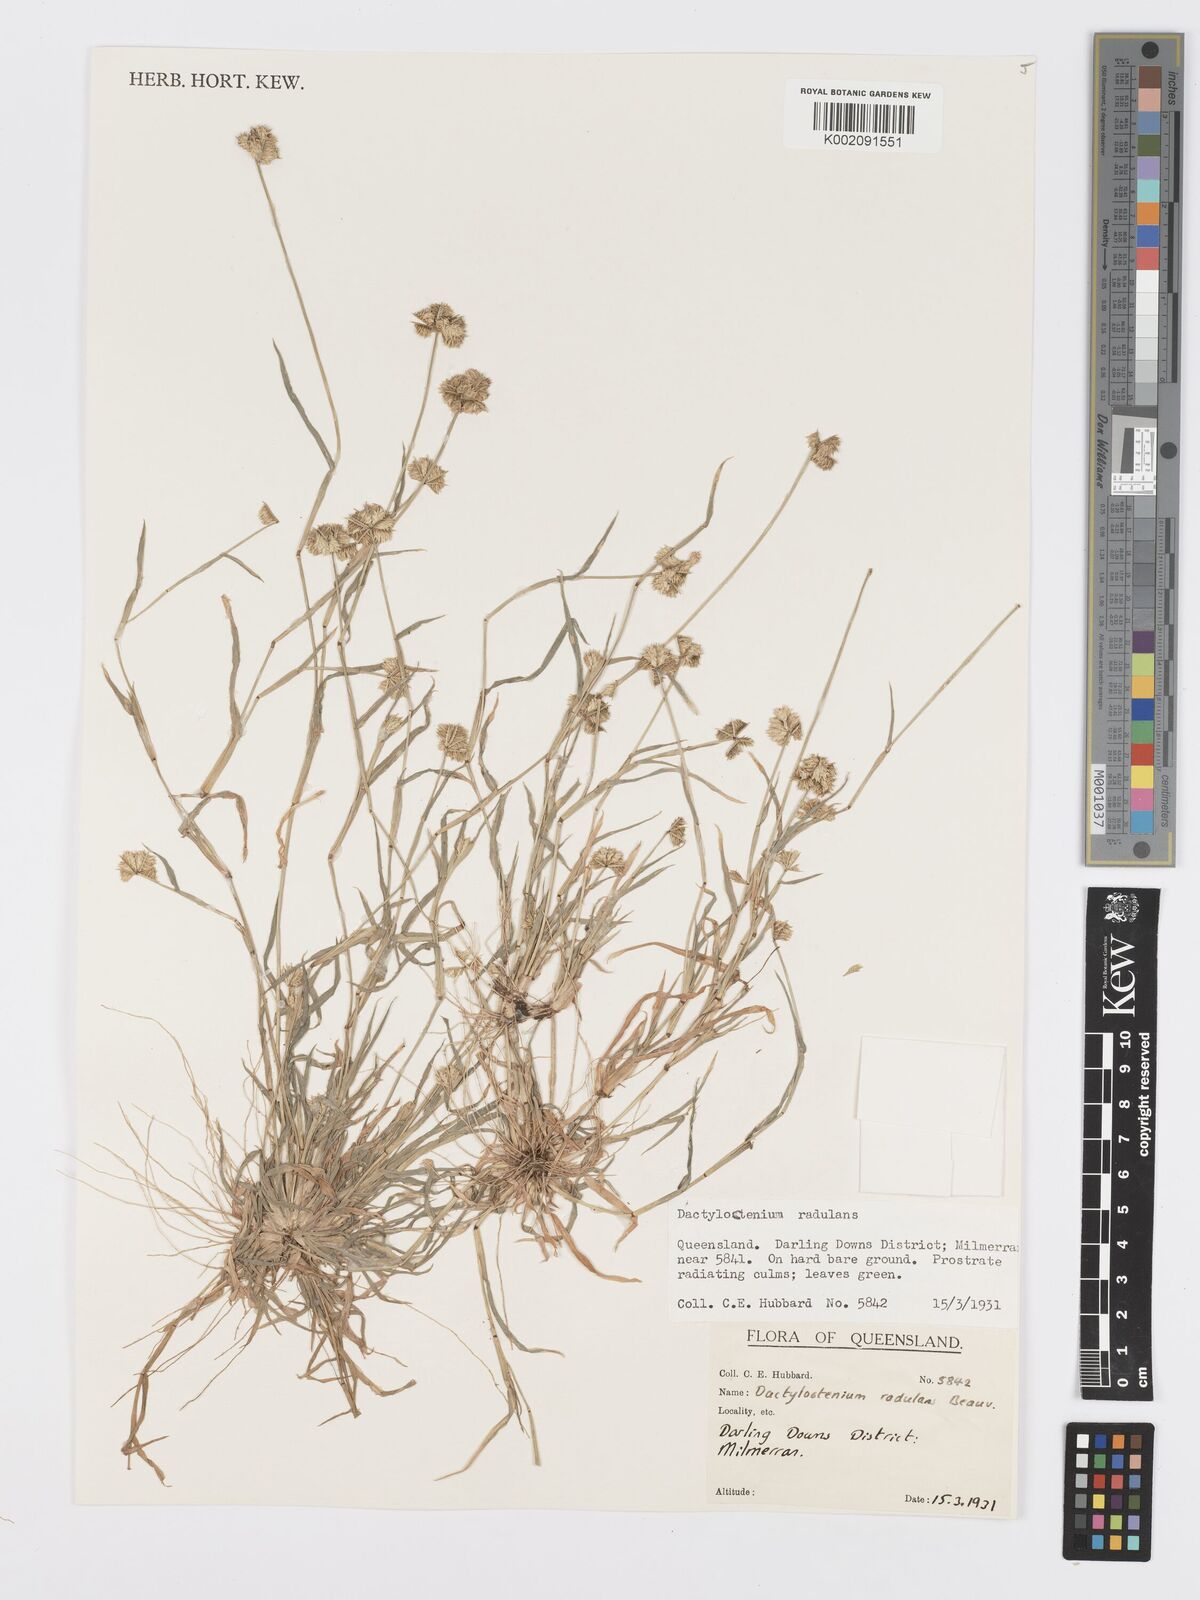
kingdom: Plantae
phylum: Tracheophyta
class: Liliopsida
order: Poales
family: Poaceae
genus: Dactyloctenium
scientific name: Dactyloctenium radulans
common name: Button-grass
